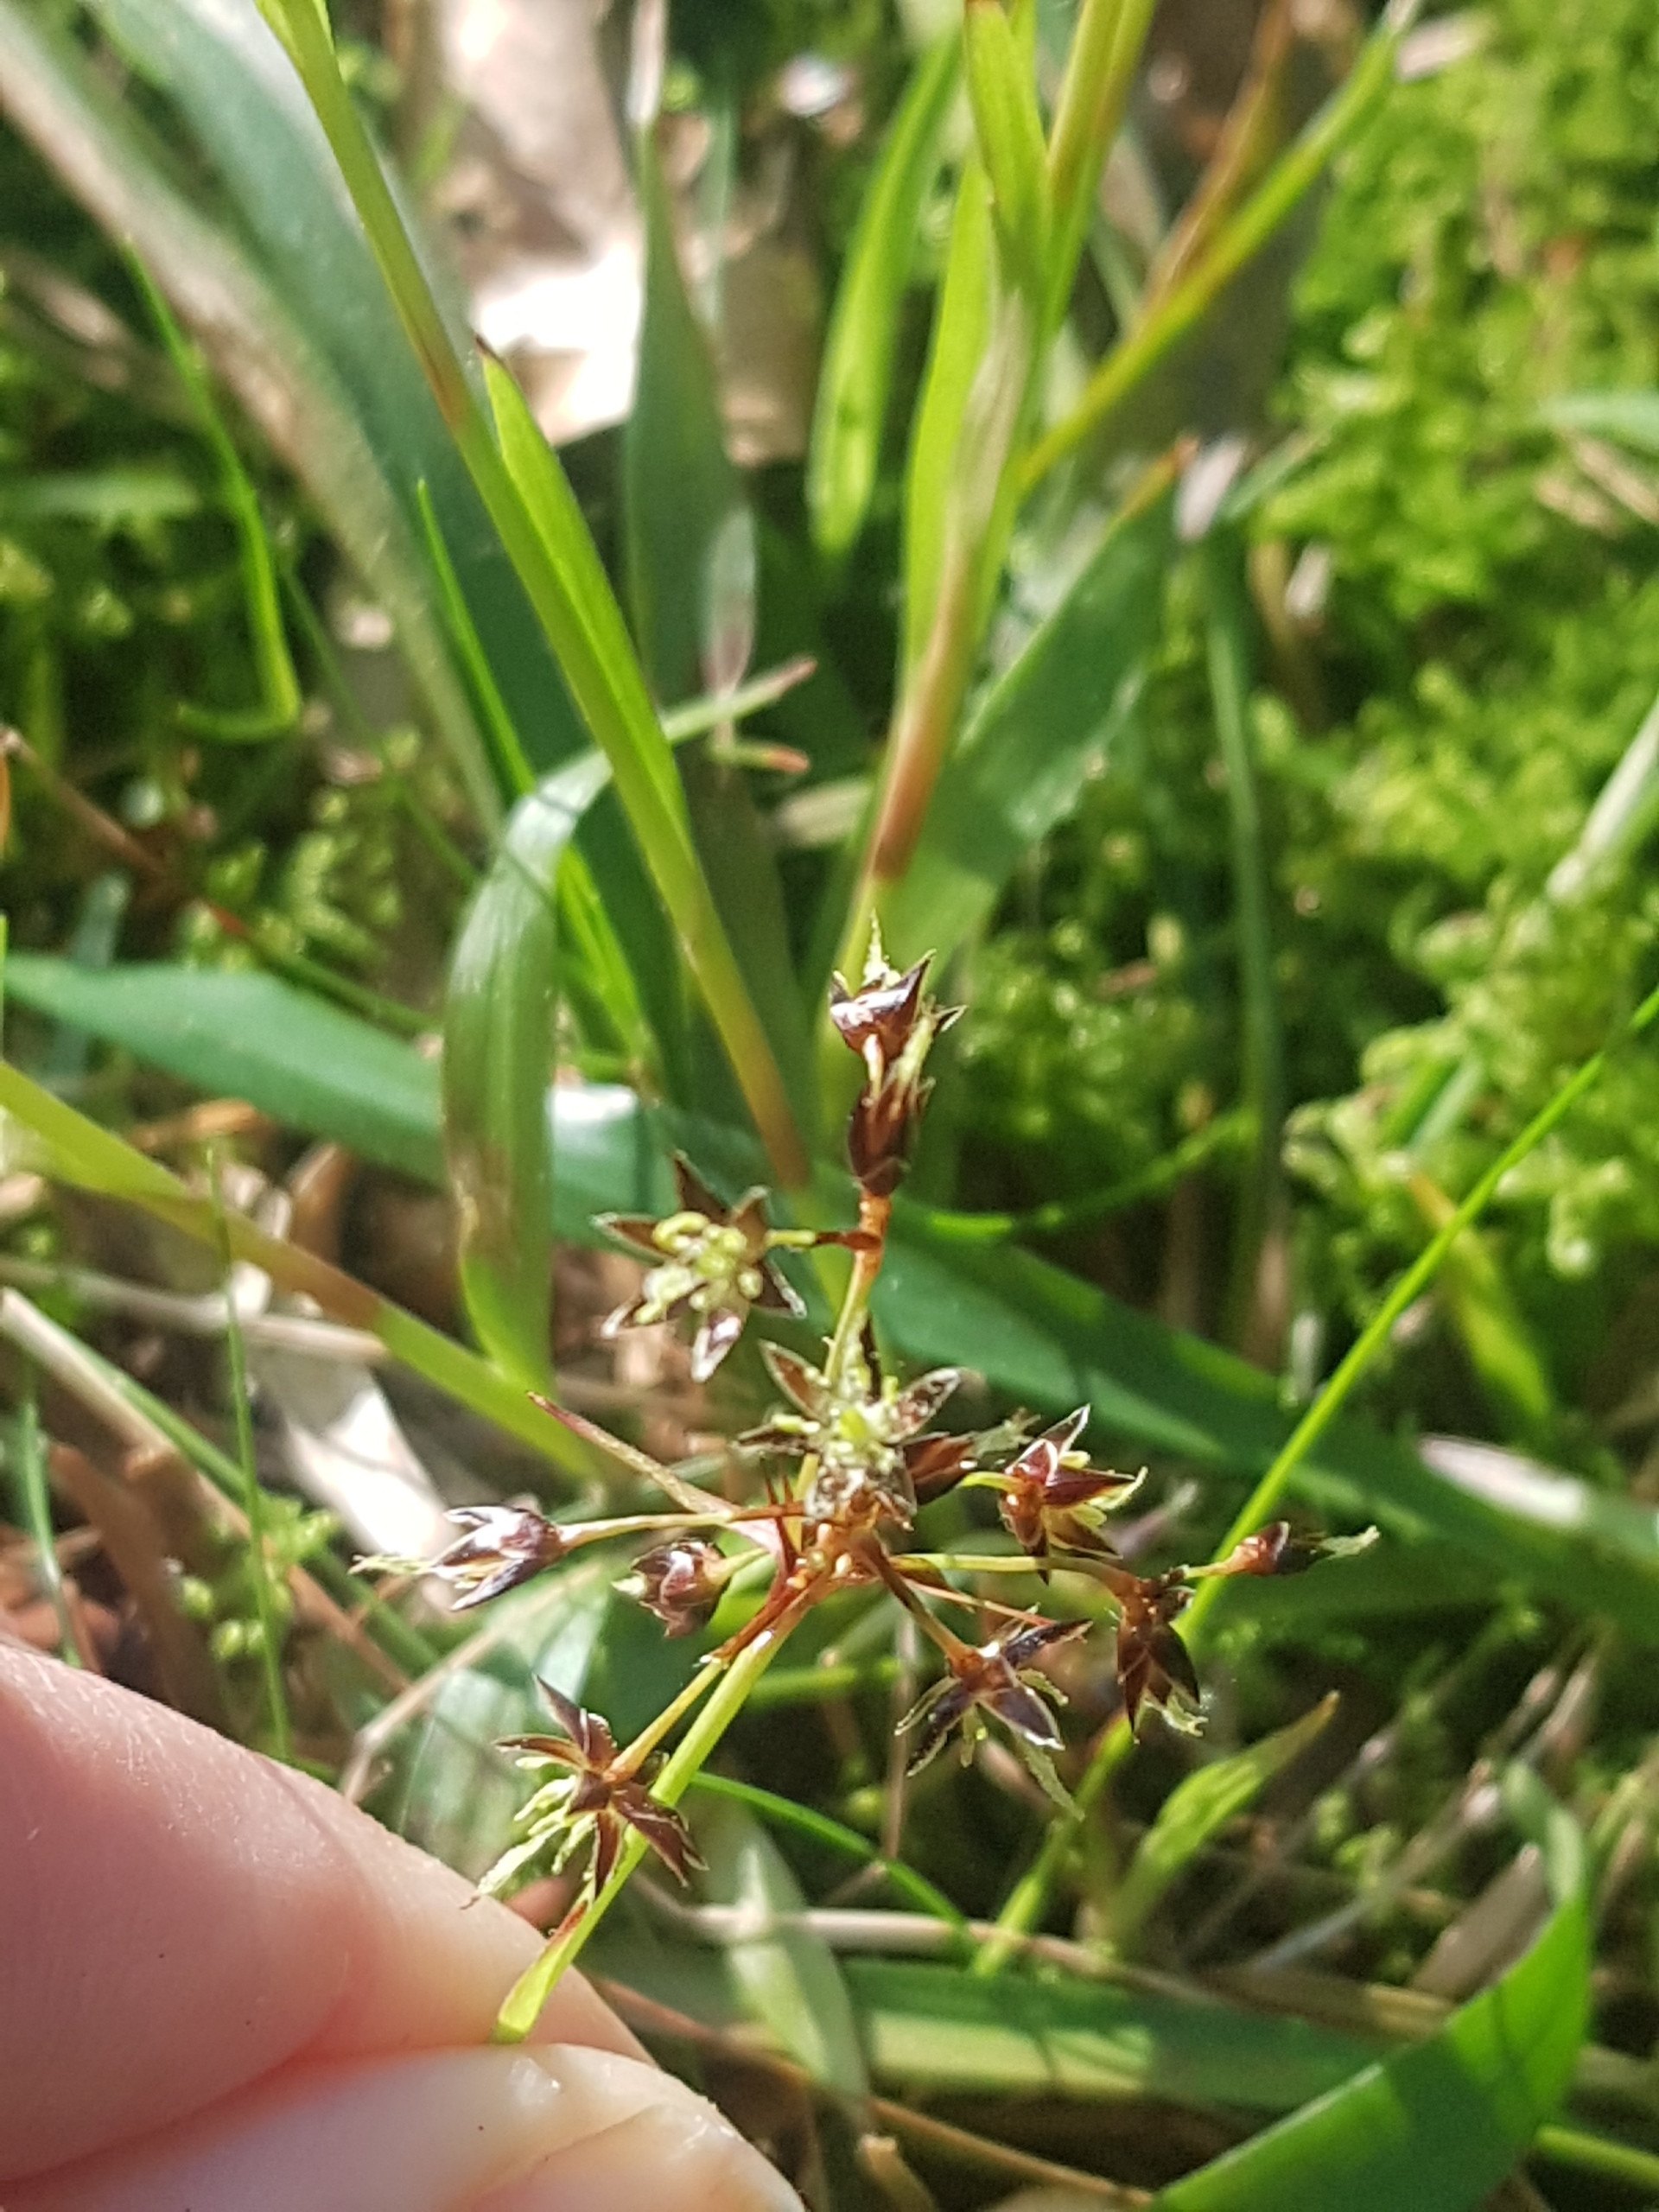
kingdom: Plantae
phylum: Tracheophyta
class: Liliopsida
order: Poales
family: Juncaceae
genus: Luzula
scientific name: Luzula pilosa
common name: Håret frytle
